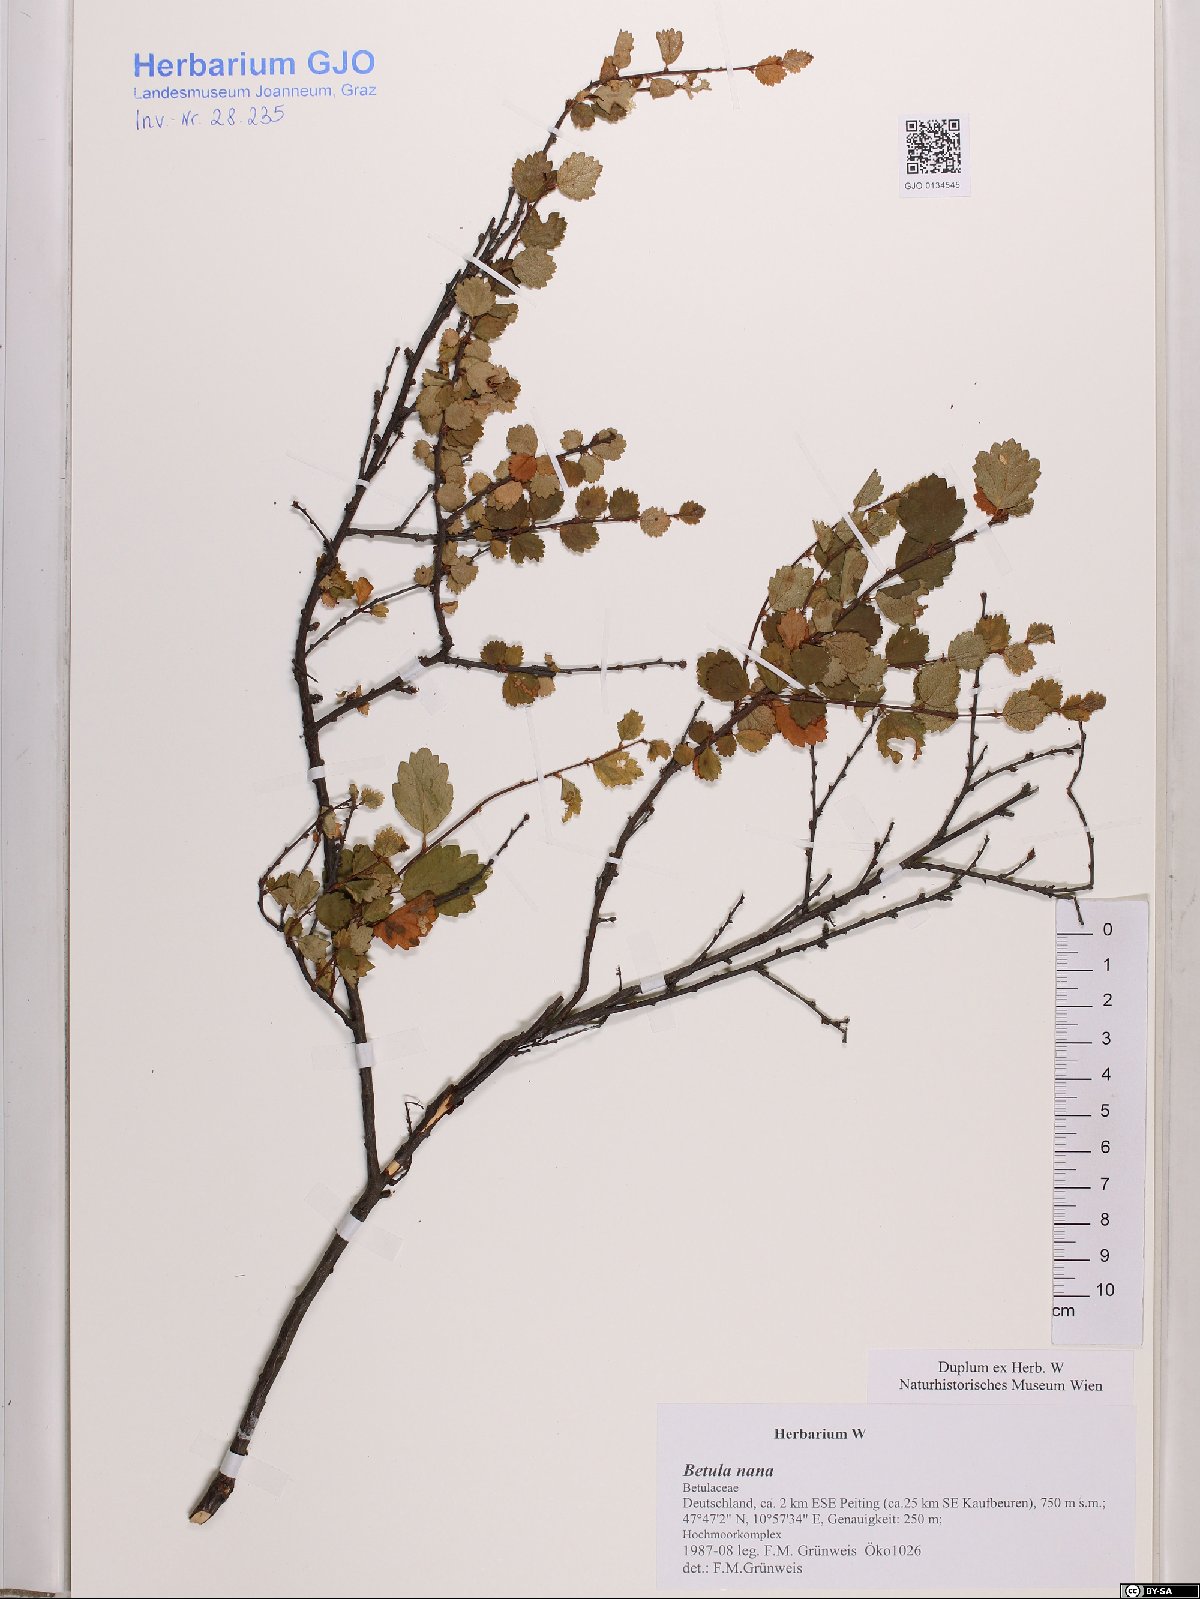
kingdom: Plantae
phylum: Tracheophyta
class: Magnoliopsida
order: Fagales
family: Betulaceae
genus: Betula
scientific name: Betula nana
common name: Arctic dwarf birch
